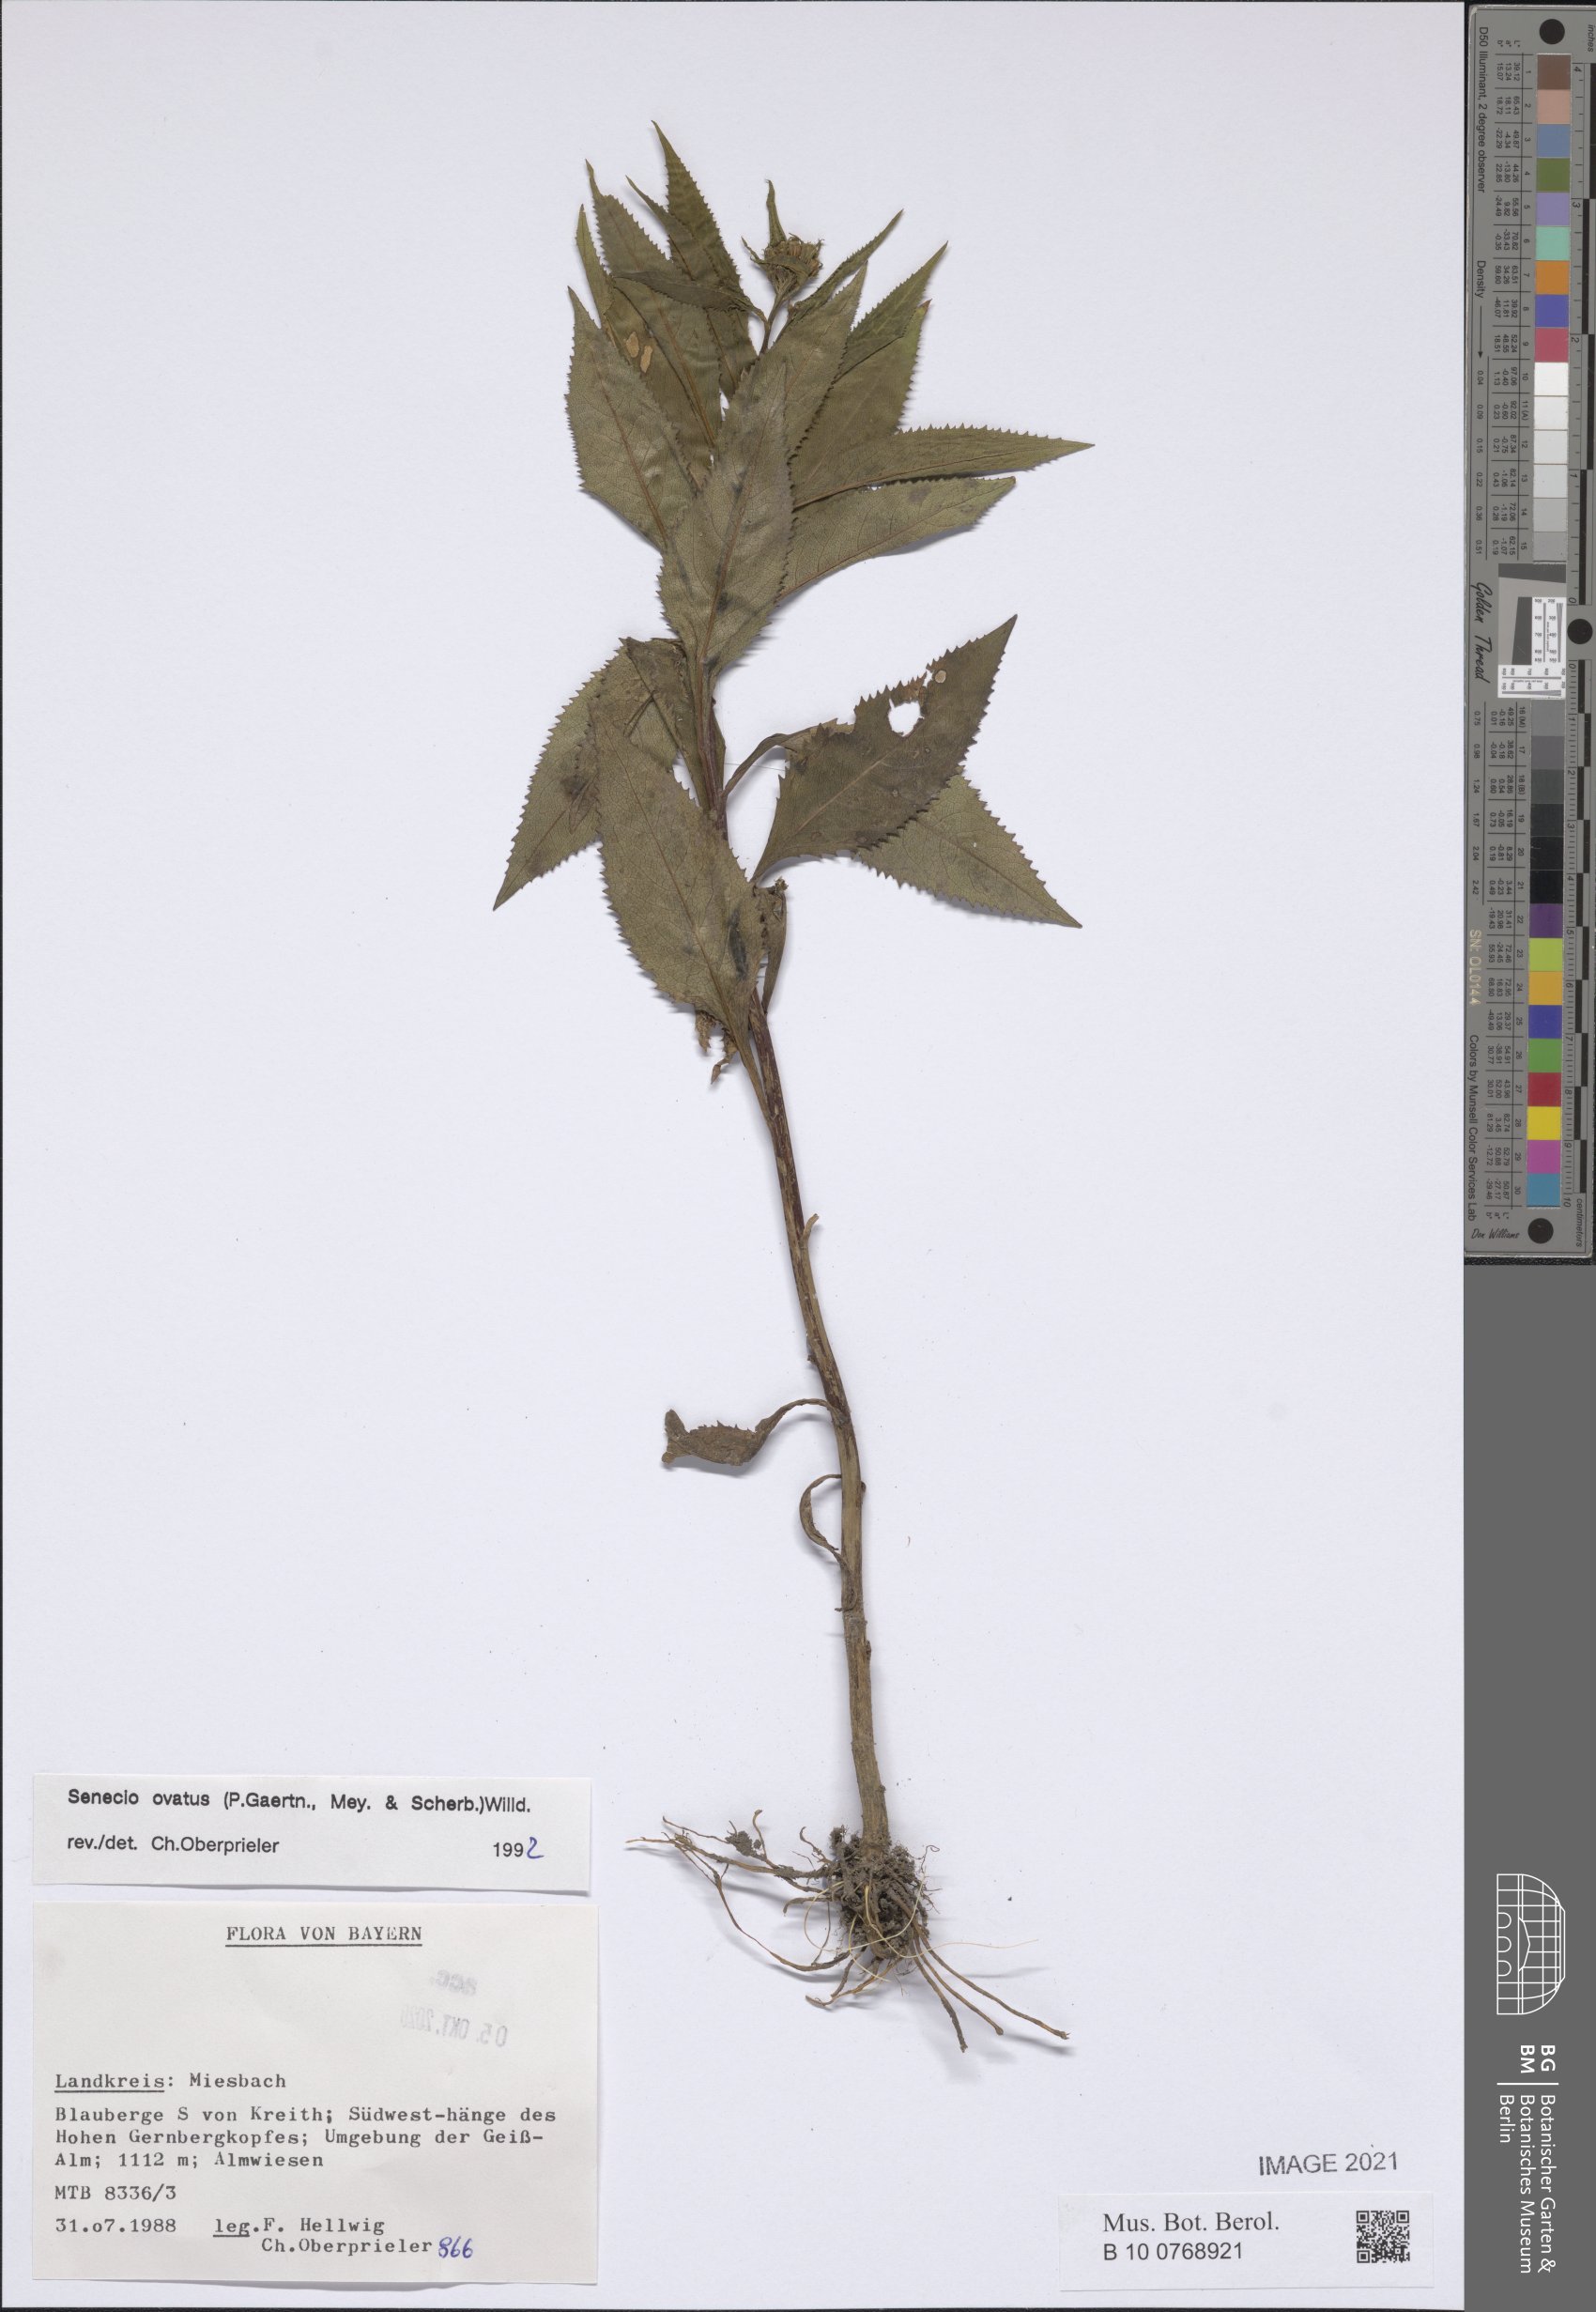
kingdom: Plantae
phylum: Tracheophyta
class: Magnoliopsida
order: Asterales
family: Asteraceae
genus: Senecio
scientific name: Senecio ovatus
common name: Wood ragwort
